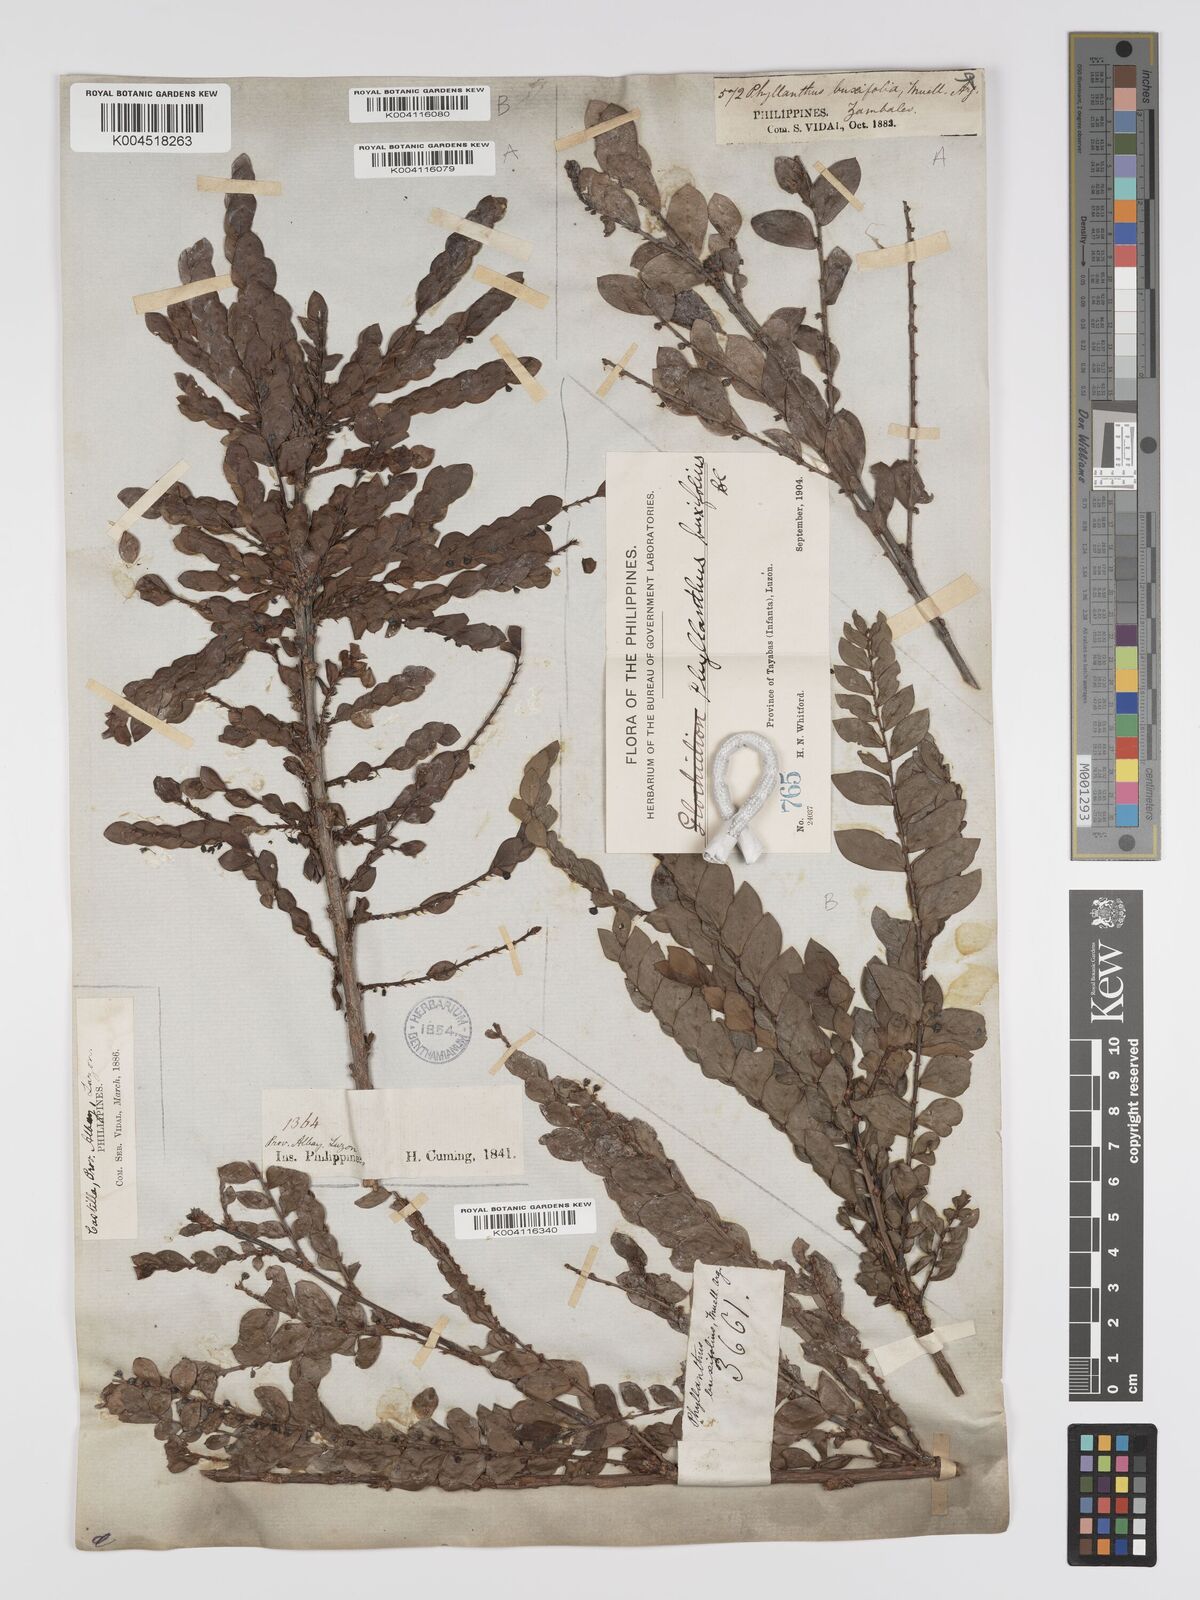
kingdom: Plantae
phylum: Tracheophyta
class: Magnoliopsida
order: Malpighiales
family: Phyllanthaceae
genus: Phyllanthus
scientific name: Phyllanthus buxifolius
